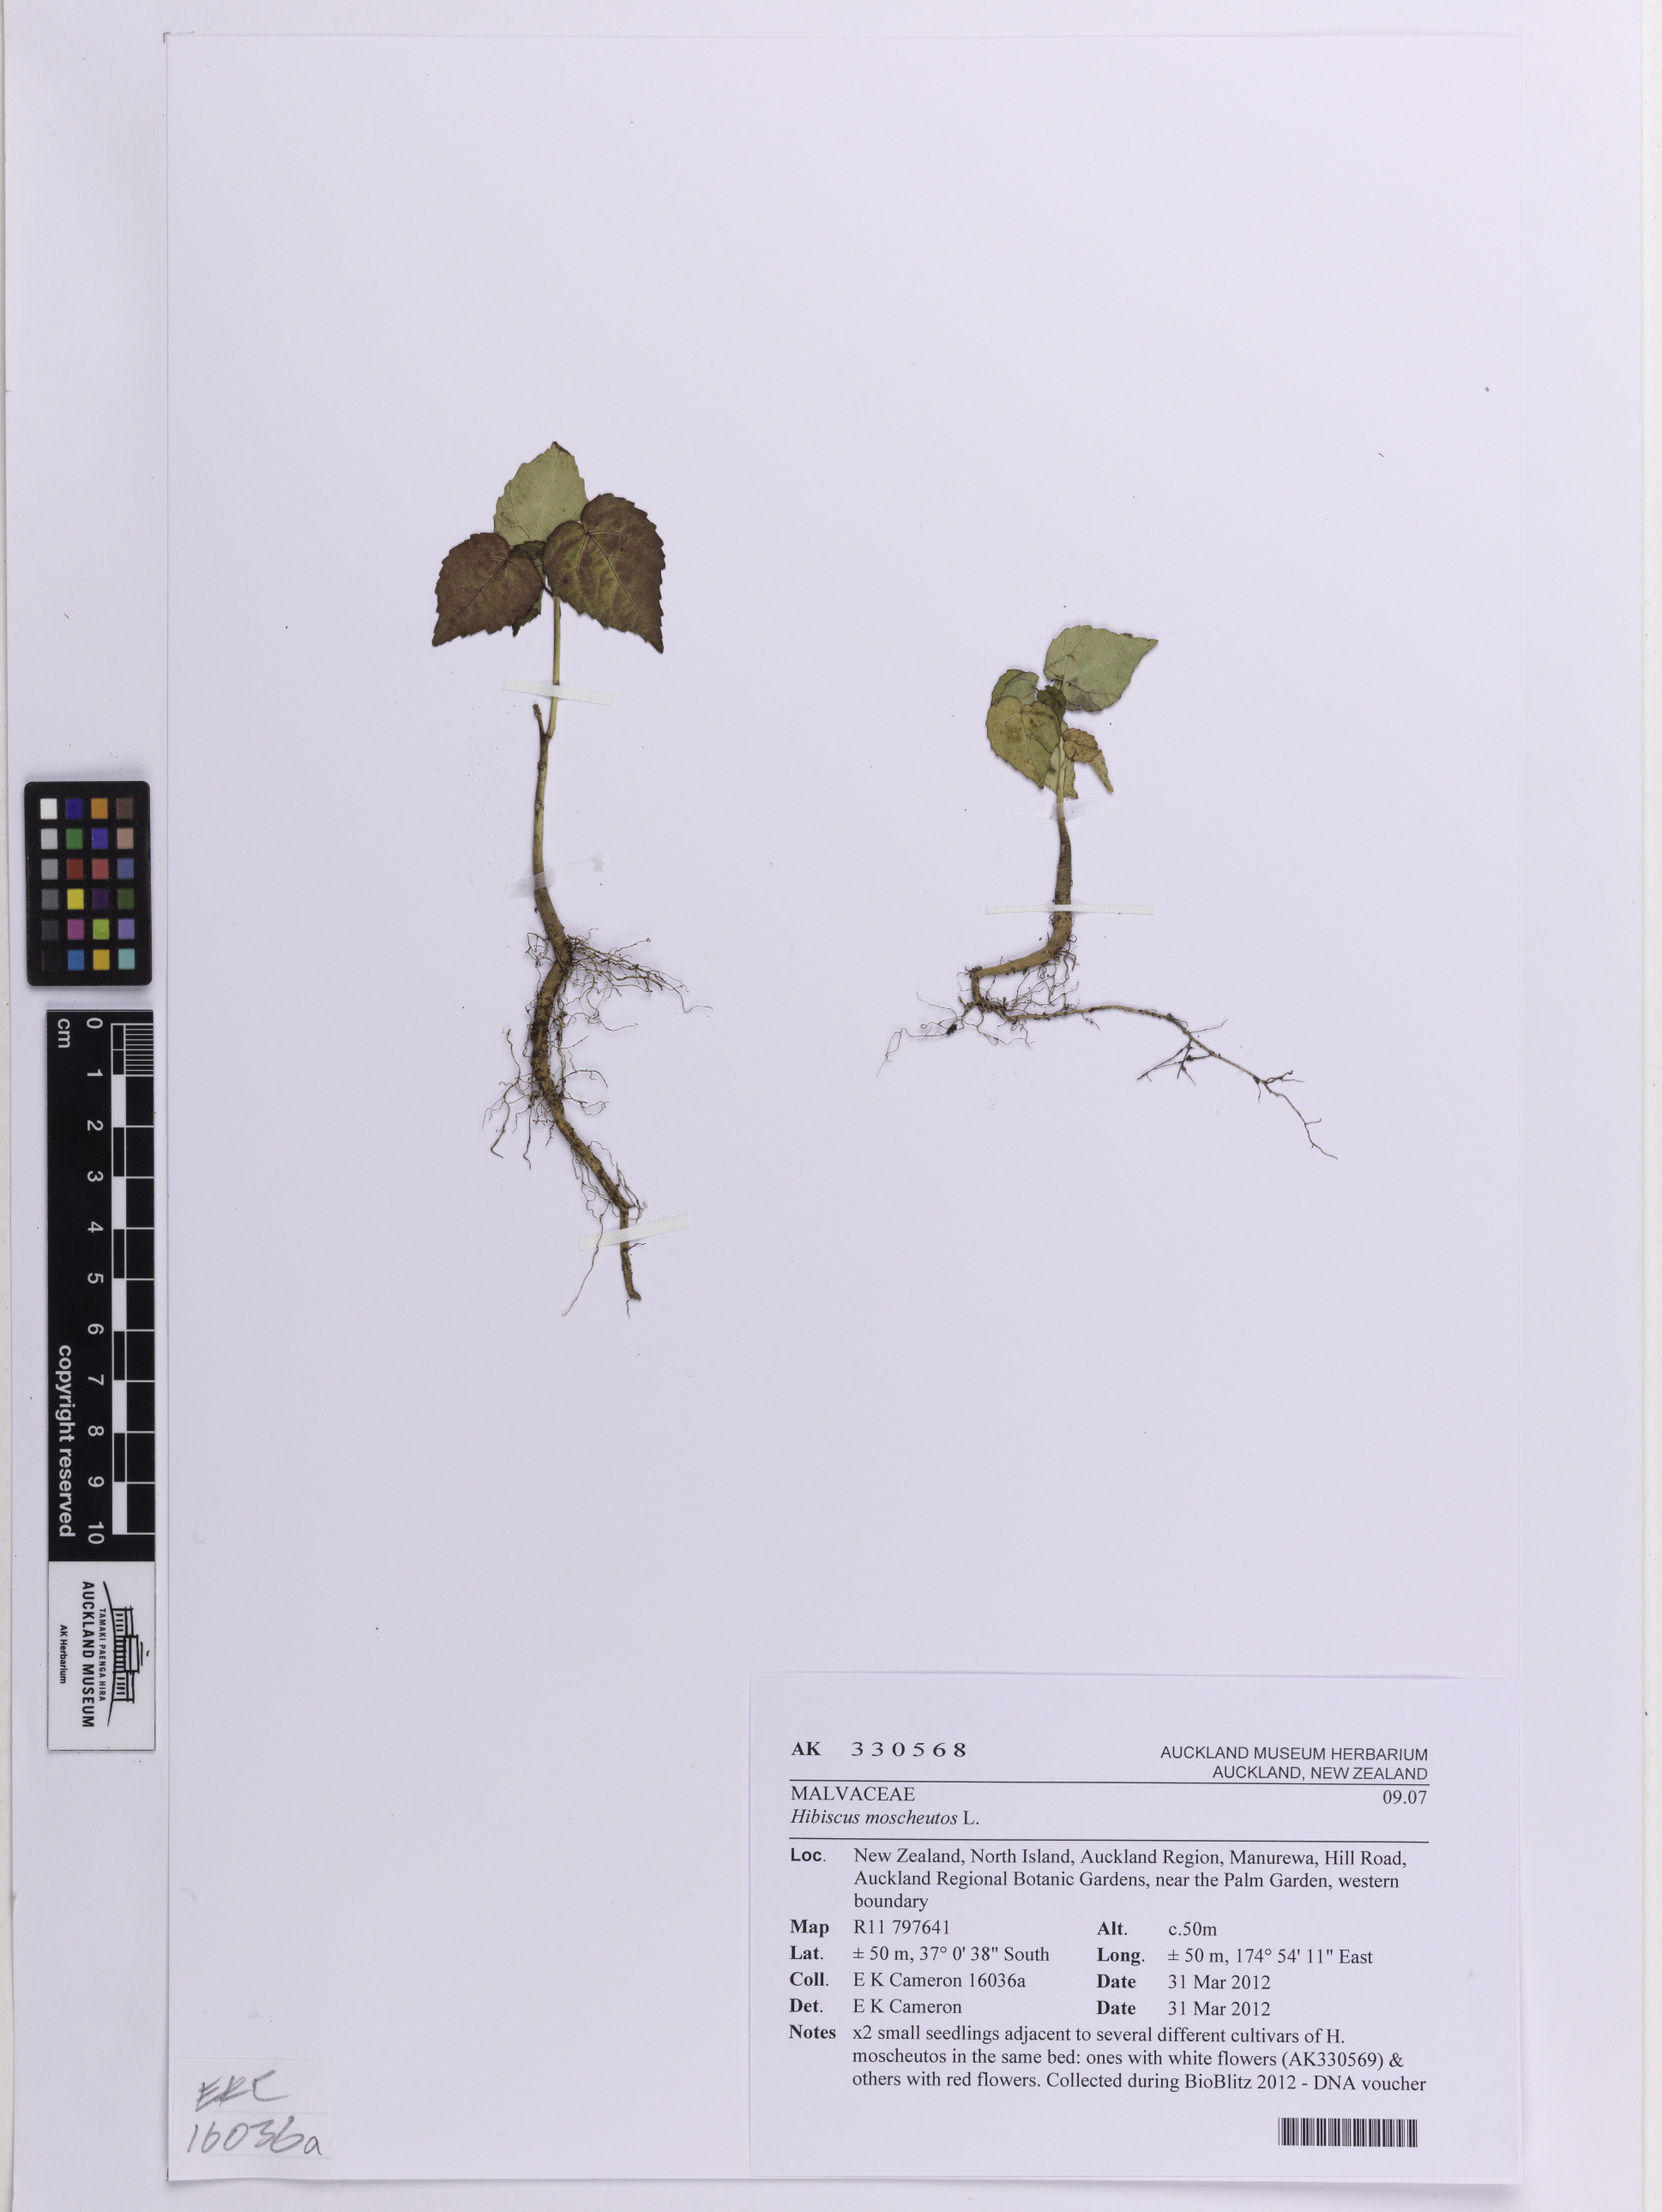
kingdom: Plantae
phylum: Tracheophyta
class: Magnoliopsida
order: Malvales
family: Malvaceae
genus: Hibiscus
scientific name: Hibiscus moscheutos
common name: Common rose-mallow
